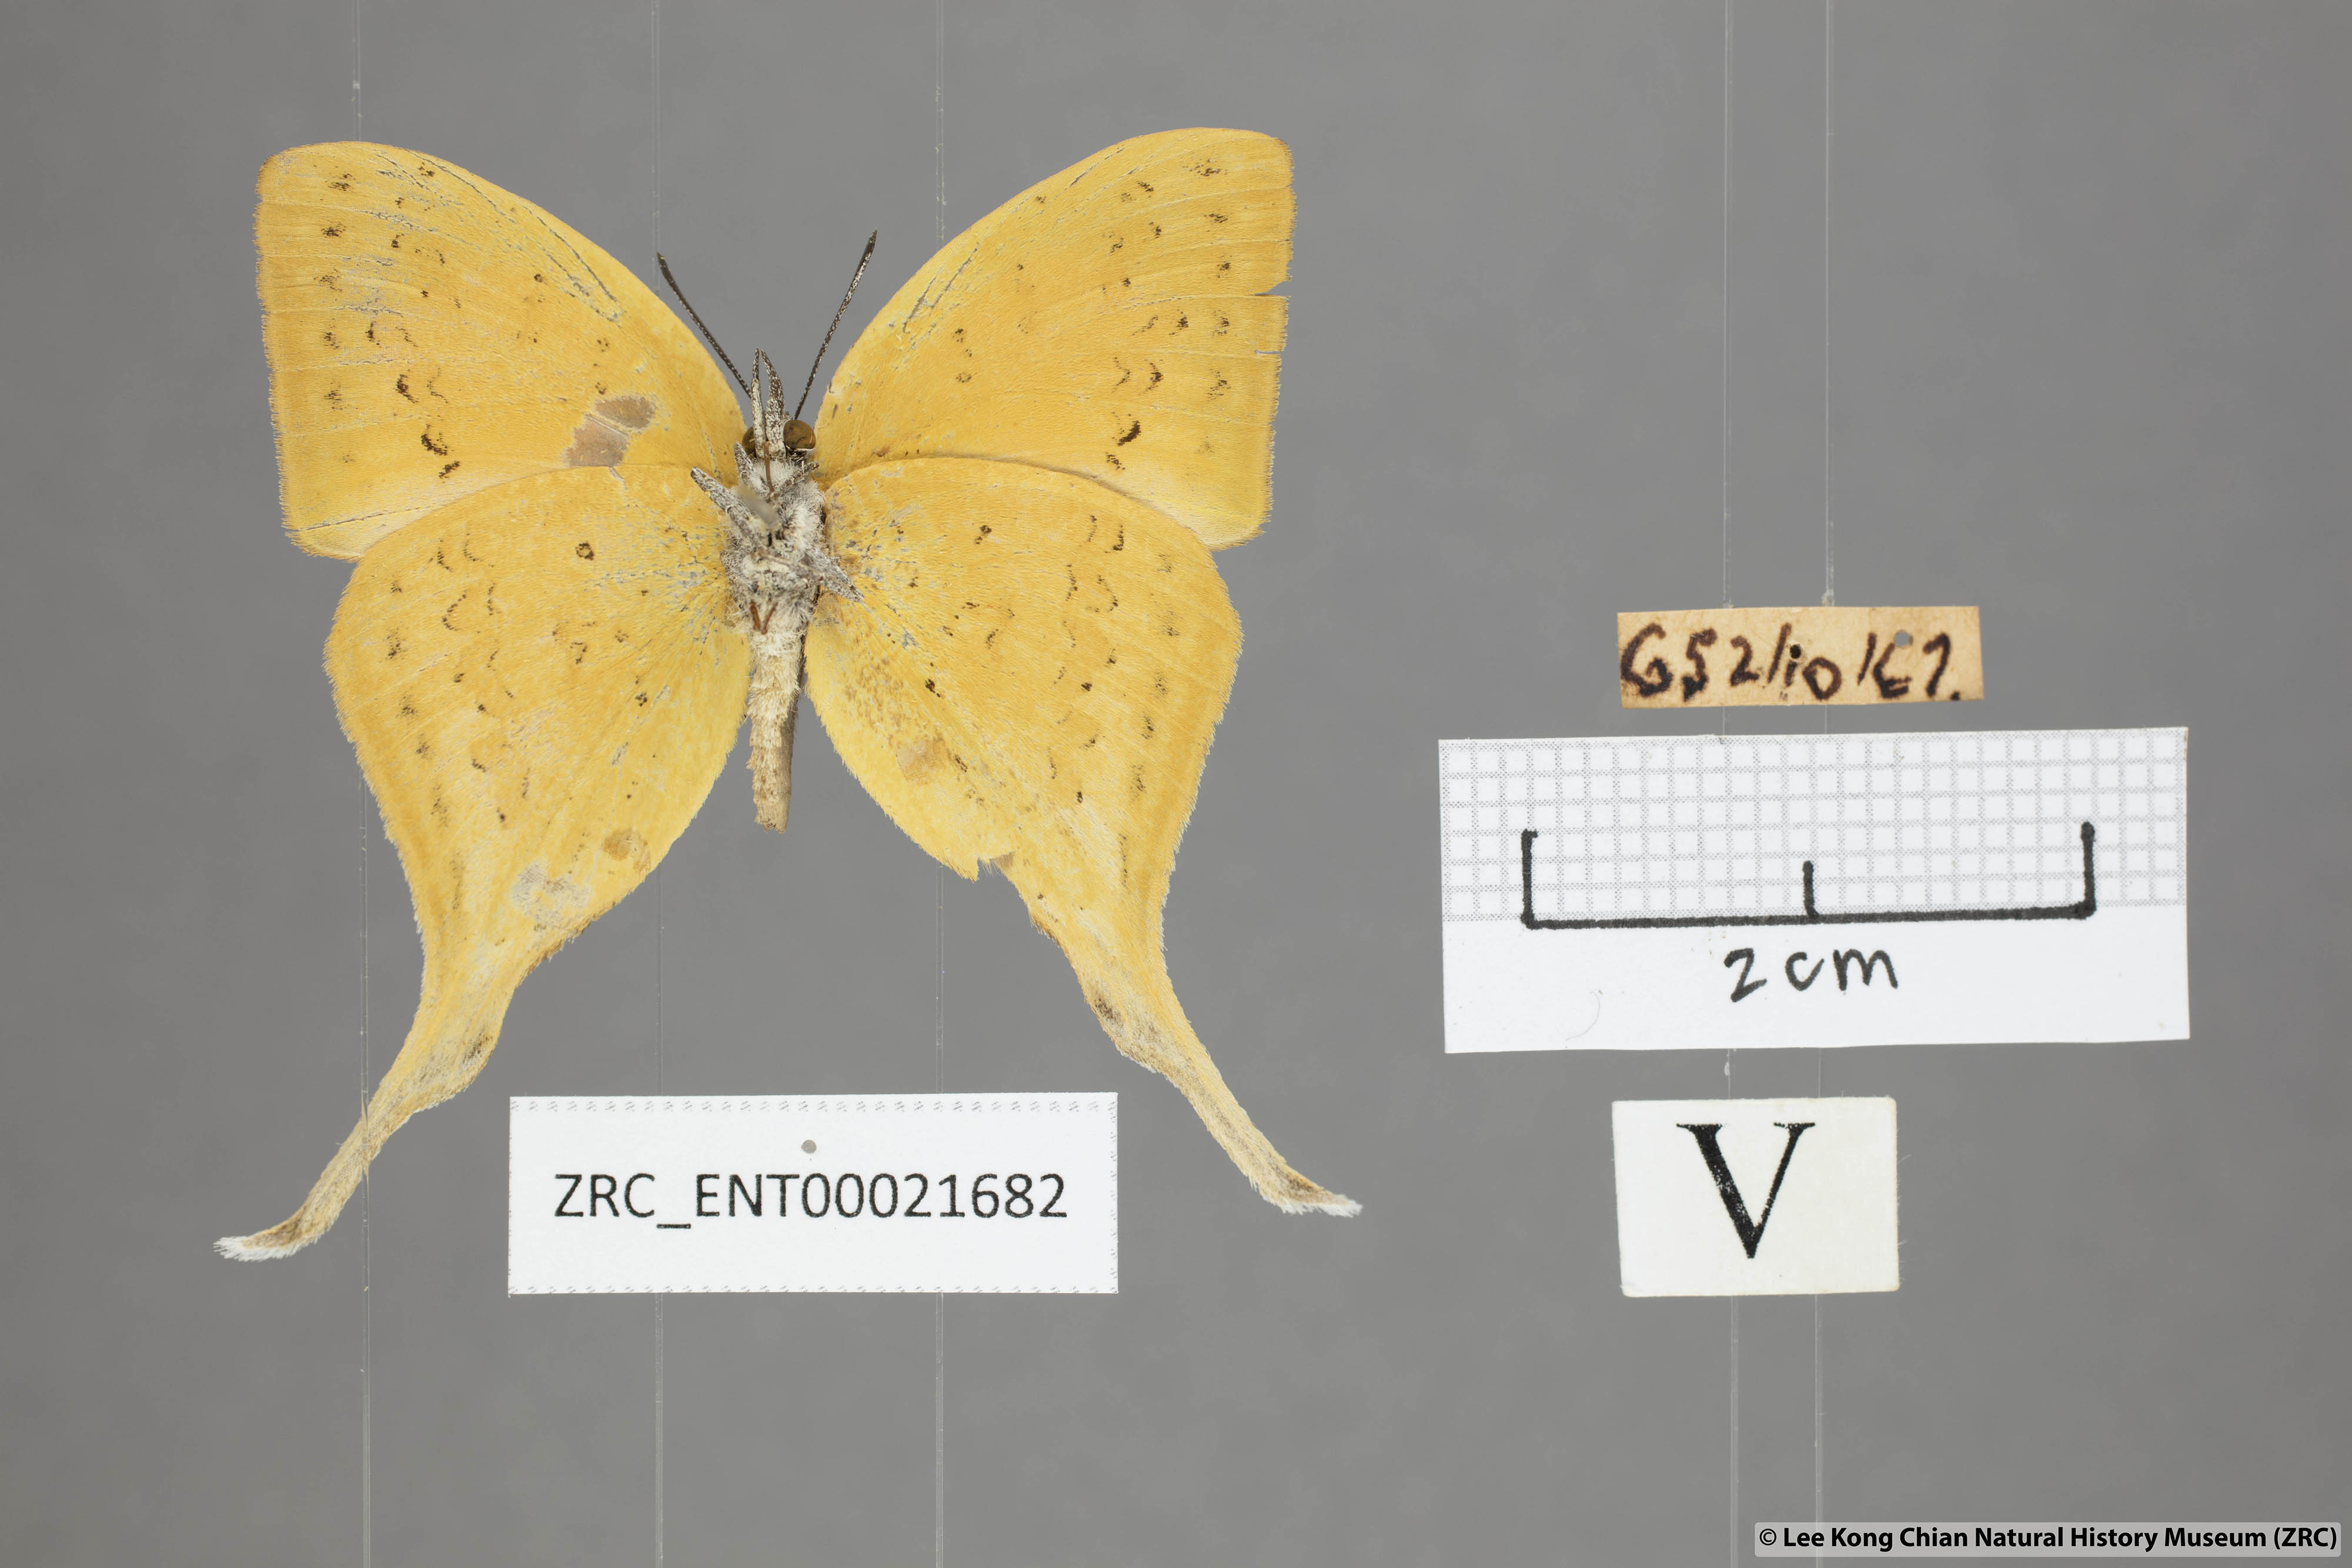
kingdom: Animalia
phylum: Arthropoda
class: Insecta
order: Lepidoptera
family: Lycaenidae
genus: Loxura
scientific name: Loxura cassiopeia
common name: Malayan yamfly
